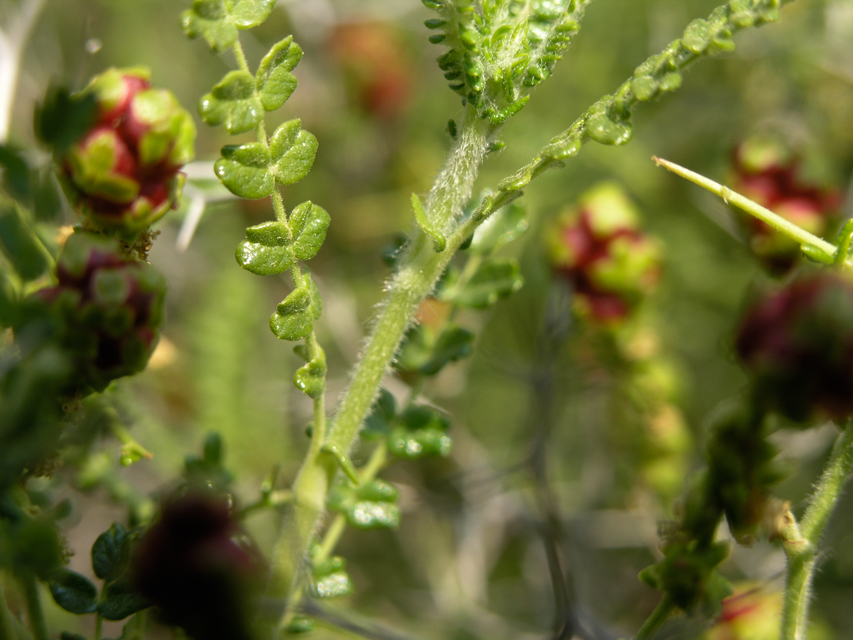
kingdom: Plantae
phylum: Tracheophyta
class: Magnoliopsida
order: Rosales
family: Rosaceae
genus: Sarcopoterium
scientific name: Sarcopoterium spinosum
